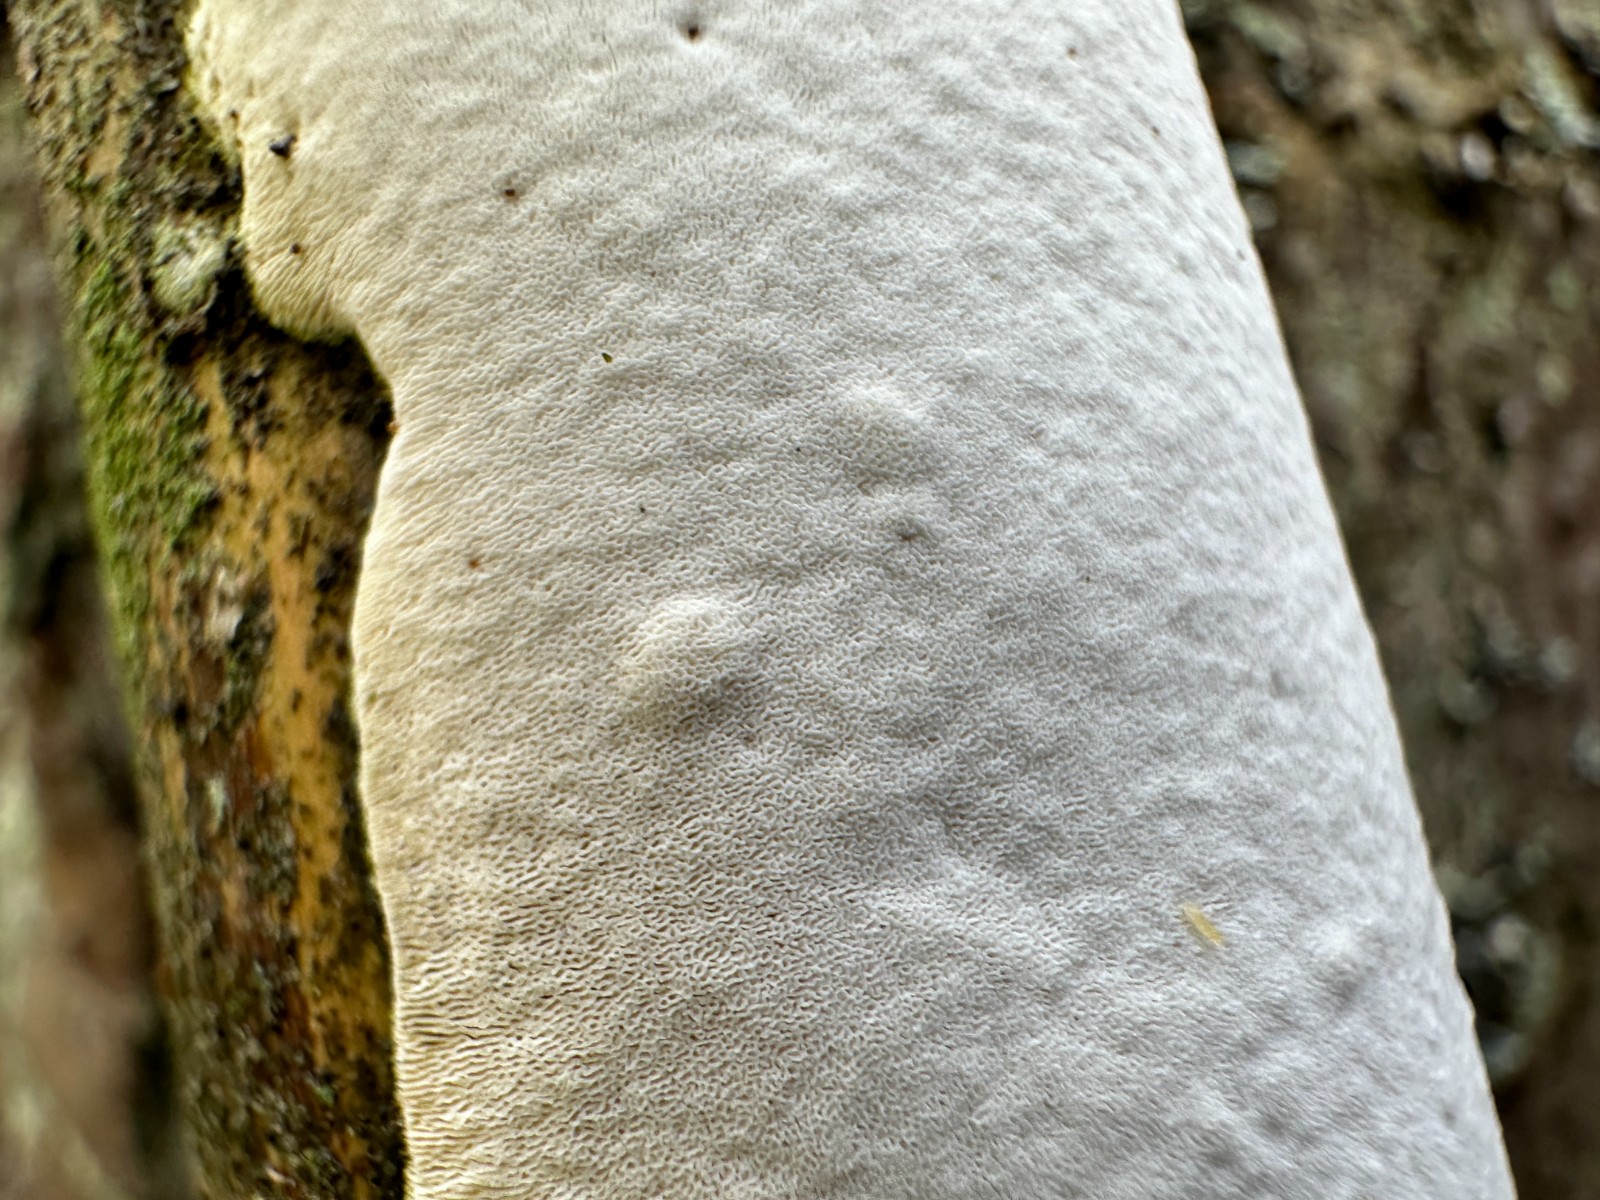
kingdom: Fungi
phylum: Basidiomycota
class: Agaricomycetes
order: Polyporales
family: Gelatoporiaceae
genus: Cinereomyces
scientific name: Cinereomyces lindbladii
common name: almindelig gråporesvamp
